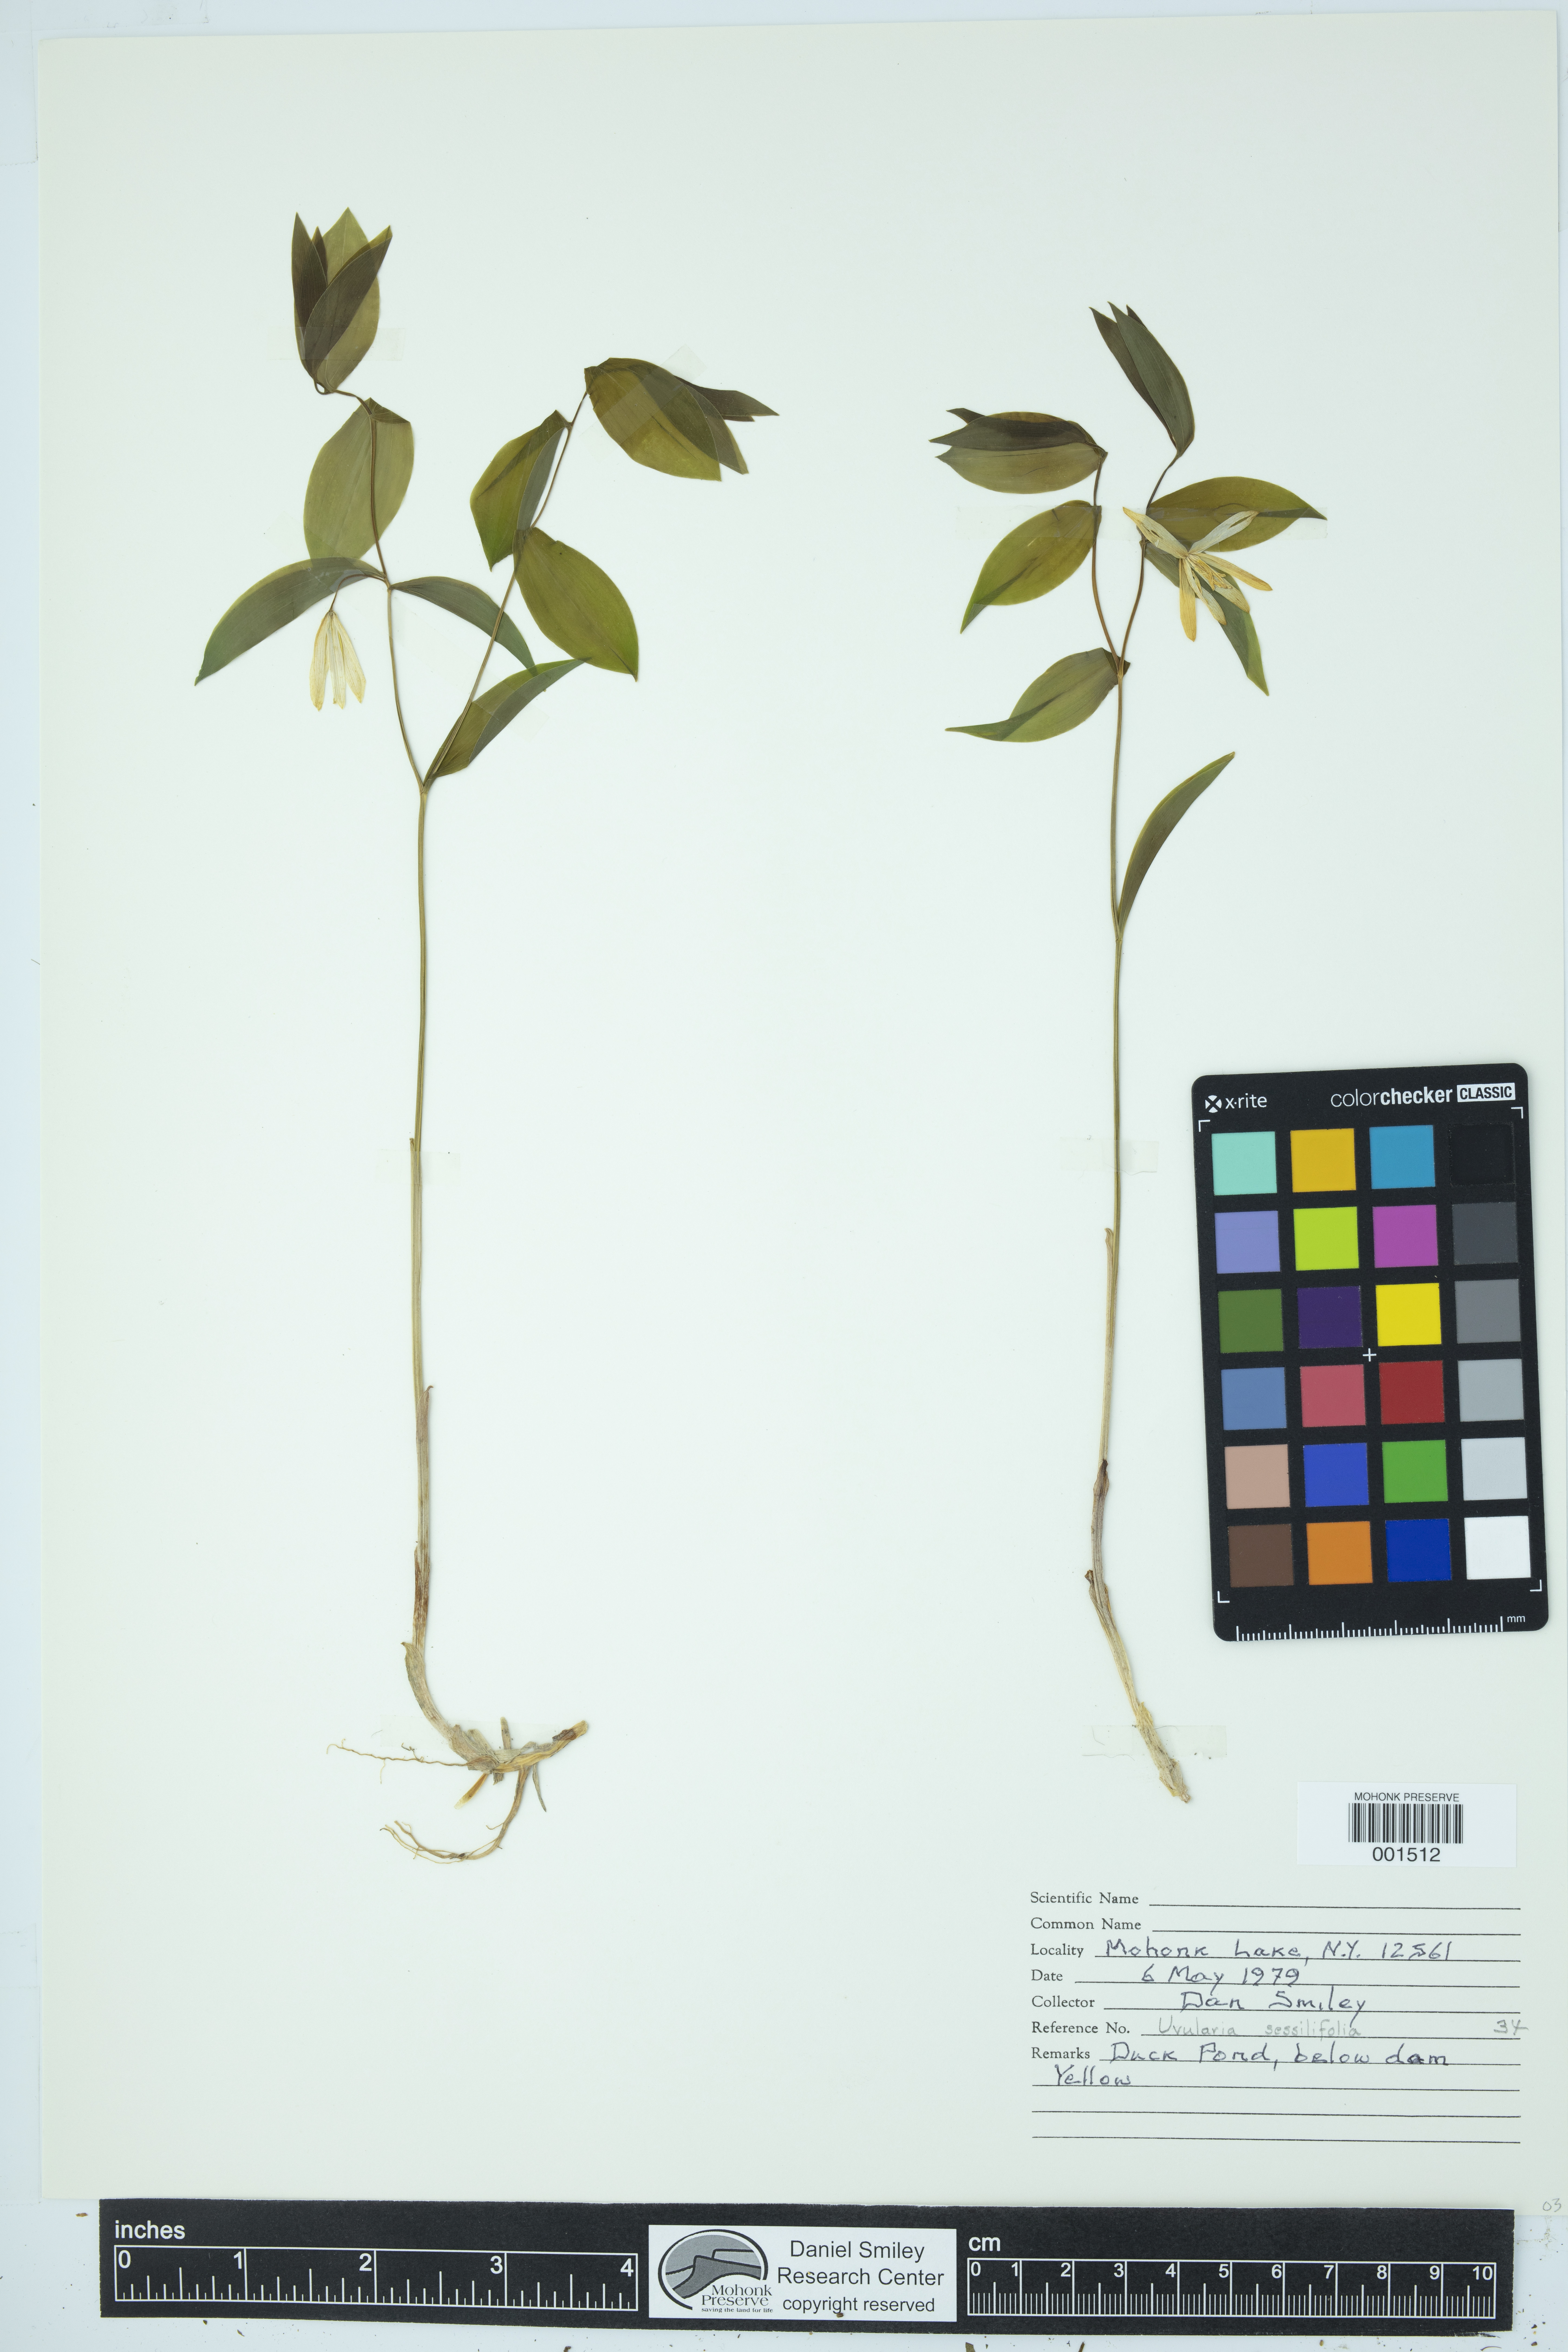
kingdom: Plantae
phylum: Tracheophyta
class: Liliopsida
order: Liliales
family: Colchicaceae
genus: Uvularia
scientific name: Uvularia sessilifolia
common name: Straw-lily
